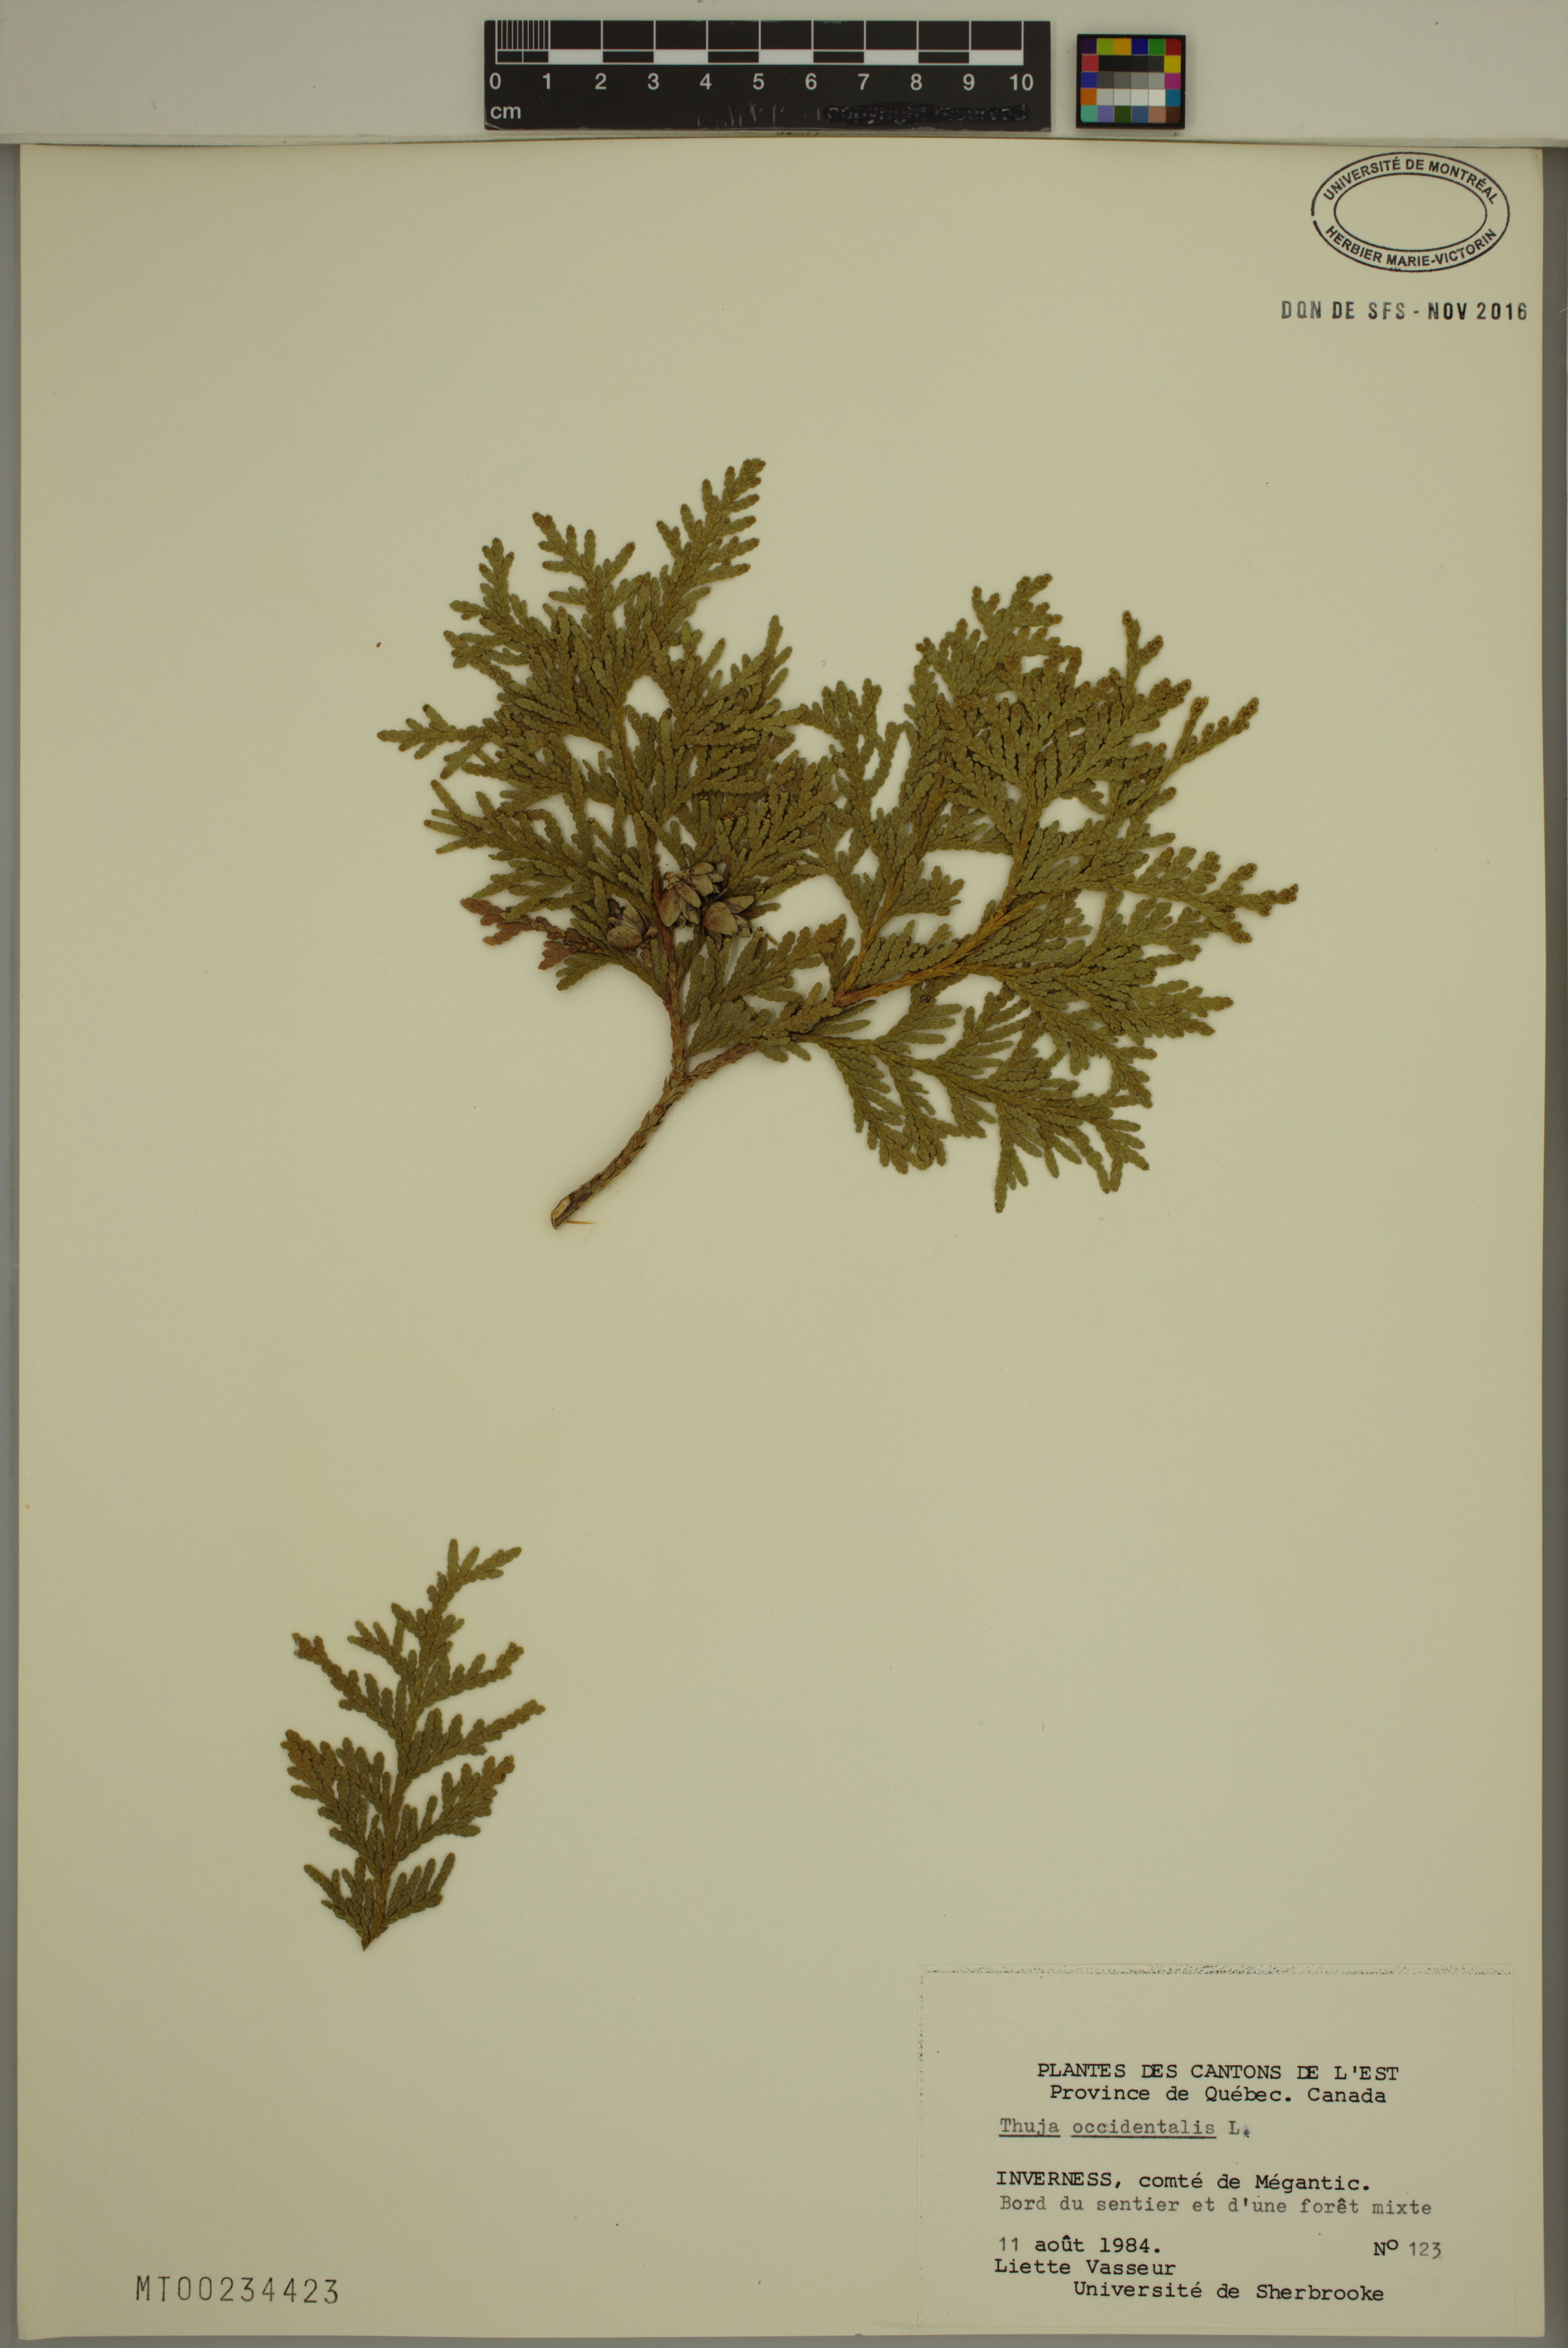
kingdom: Plantae
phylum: Tracheophyta
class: Pinopsida
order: Pinales
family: Cupressaceae
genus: Thuja
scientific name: Thuja occidentalis
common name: Northern white-cedar
